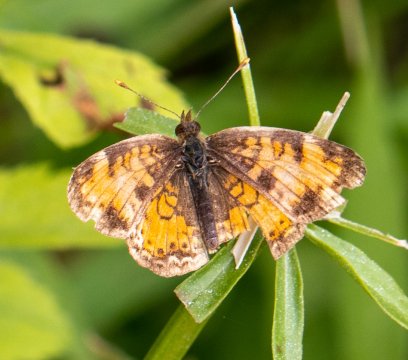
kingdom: Animalia
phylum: Arthropoda
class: Insecta
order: Lepidoptera
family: Nymphalidae
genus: Phyciodes
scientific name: Phyciodes
